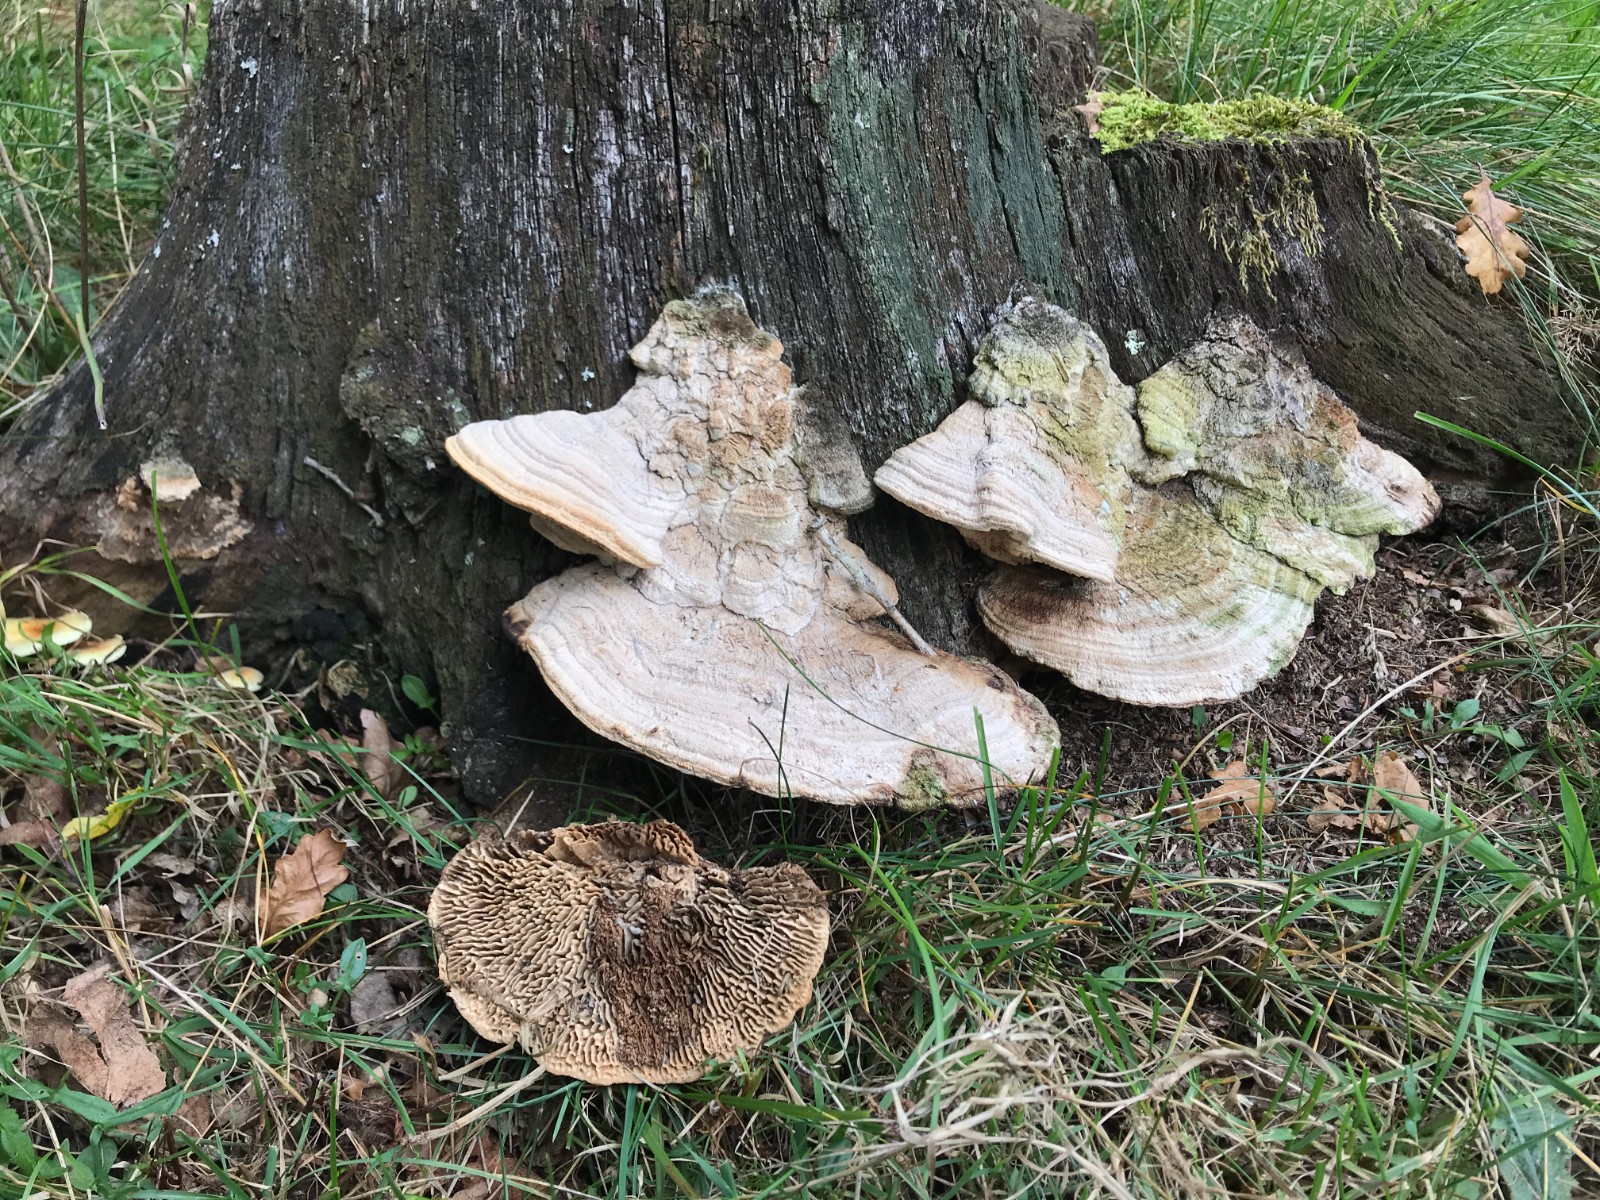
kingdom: Fungi
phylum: Basidiomycota
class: Agaricomycetes
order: Polyporales
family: Fomitopsidaceae
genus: Daedalea
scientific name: Daedalea quercina
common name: ege-labyrintsvamp
